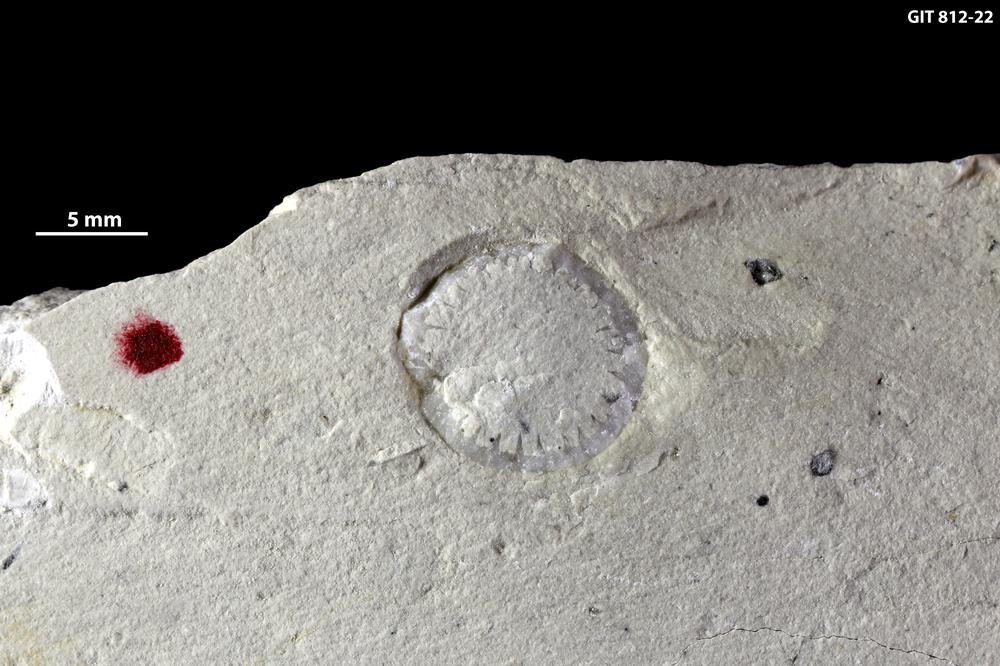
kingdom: Plantae
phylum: Chlorophyta
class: Chlorophyceae
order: Receptaculitales
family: Receptaculitaceae
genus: Tettragonis
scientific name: Tettragonis
